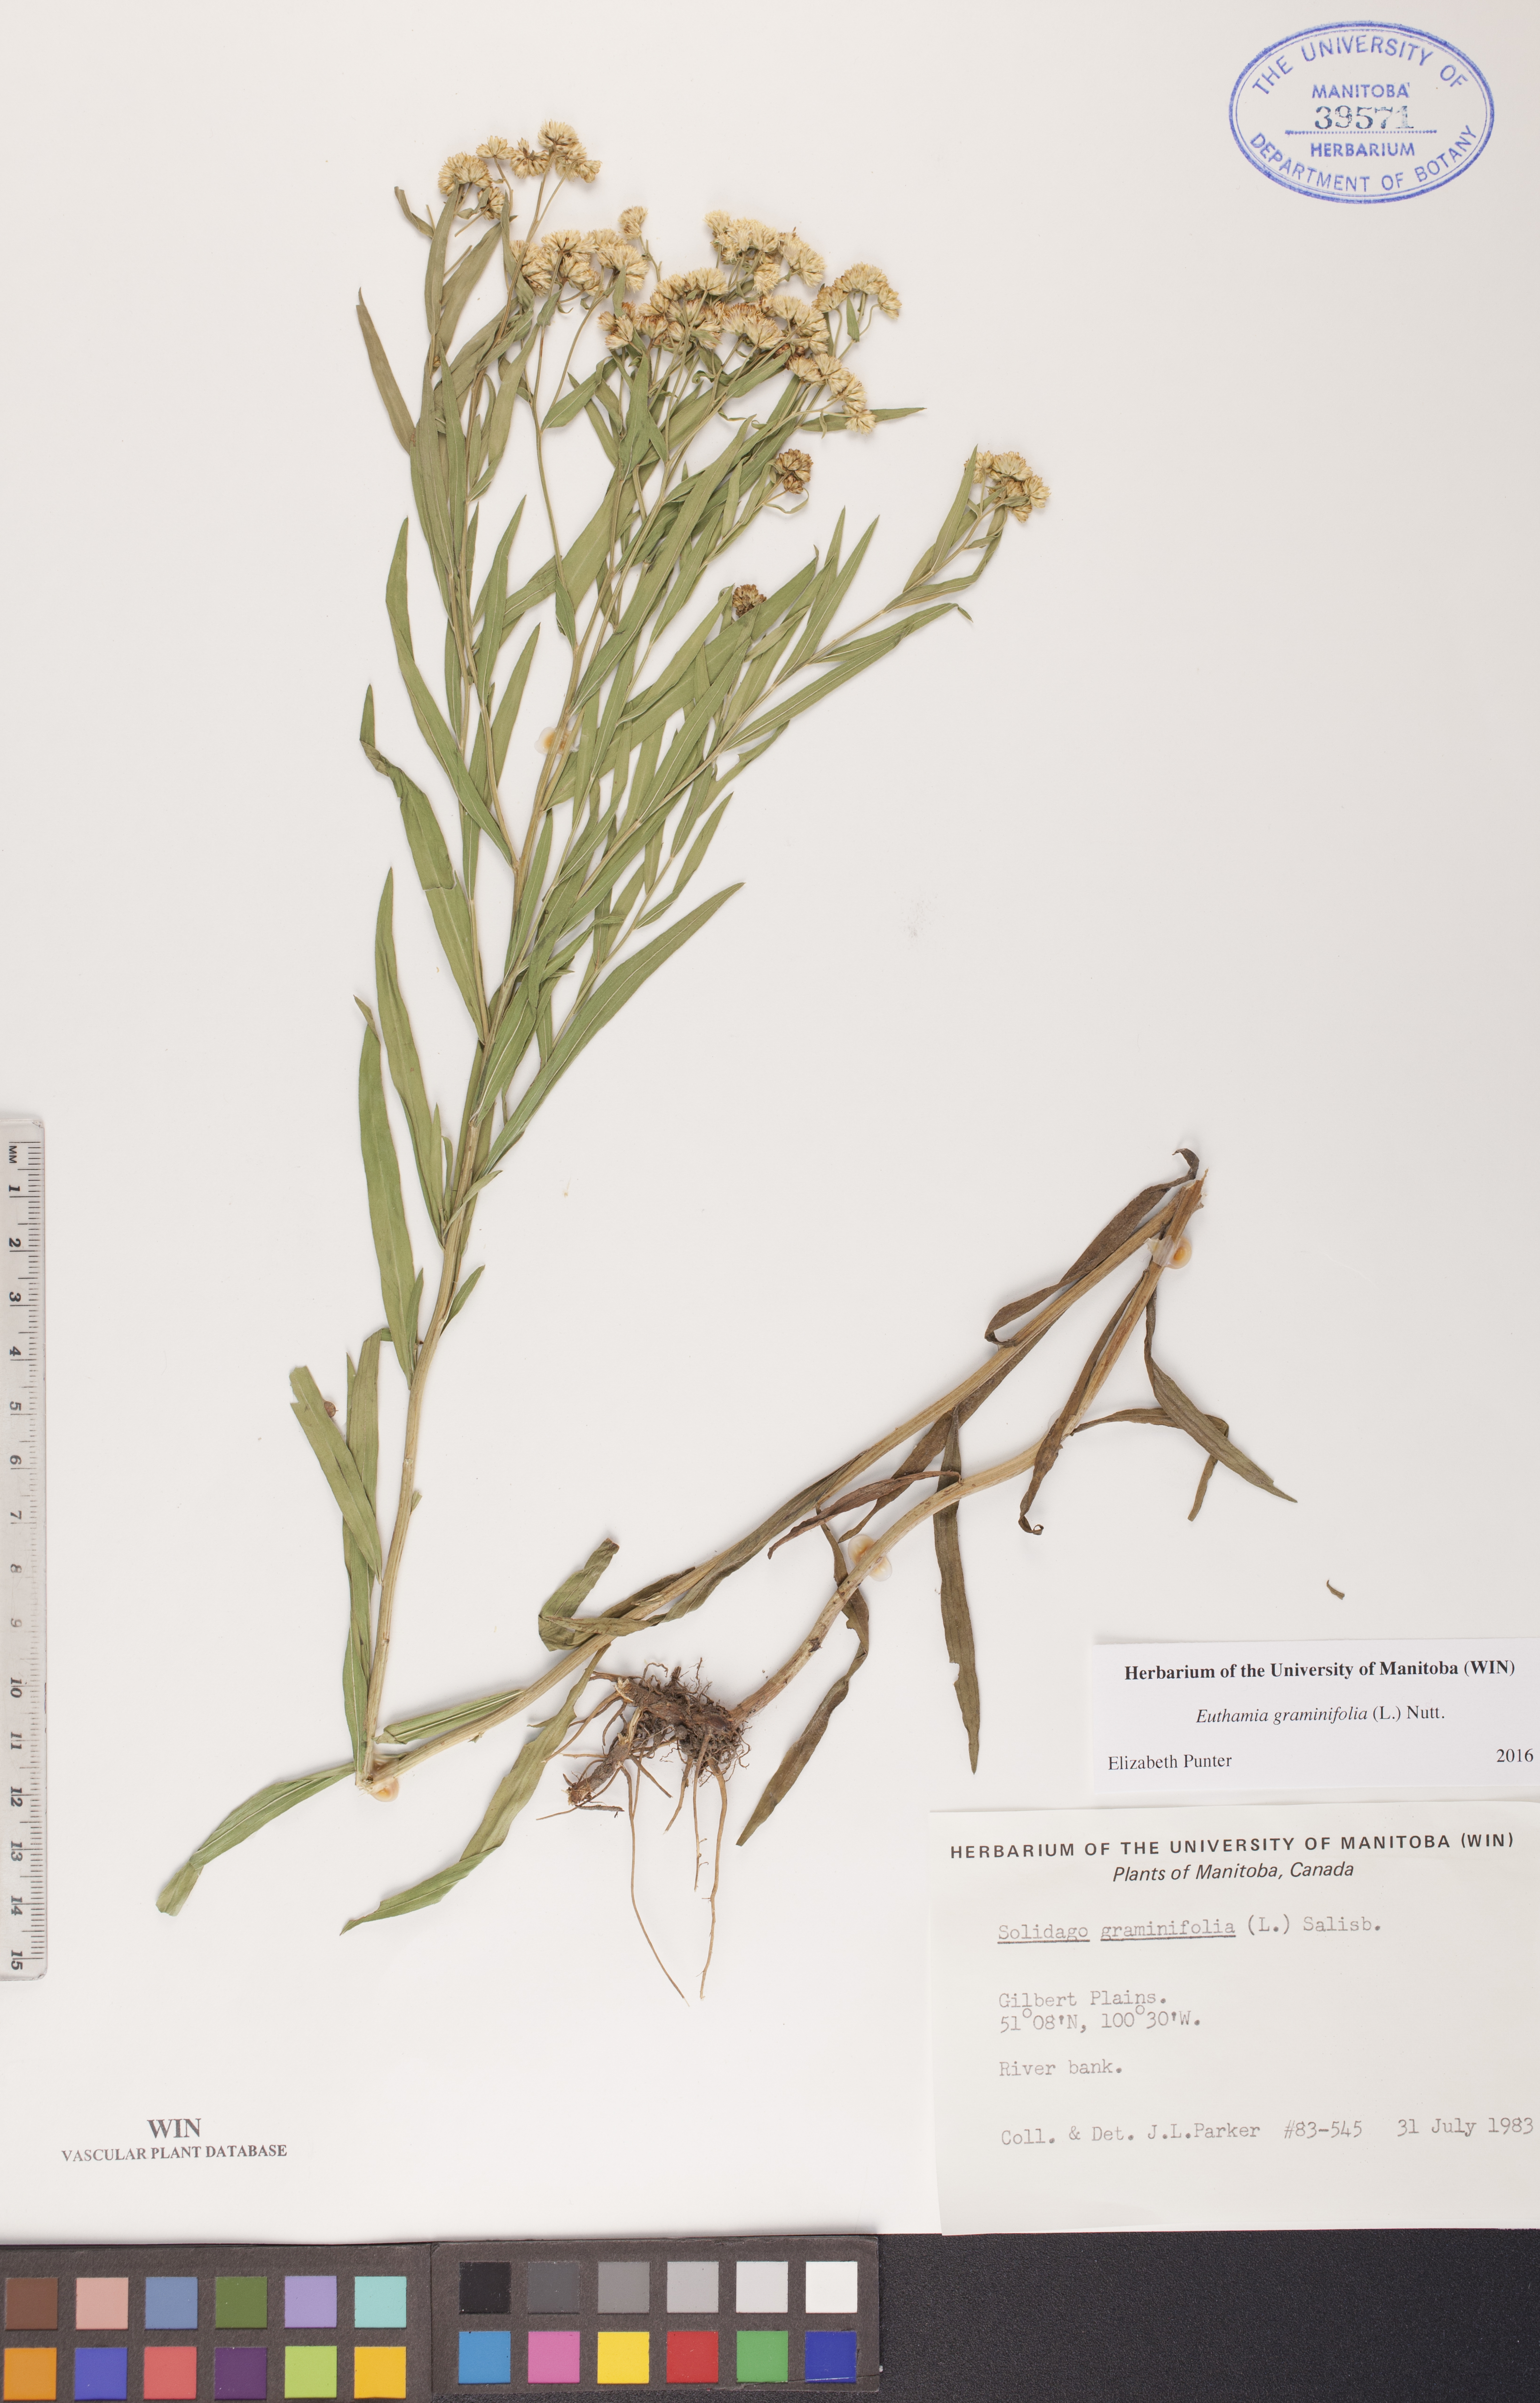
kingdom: Plantae
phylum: Tracheophyta
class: Magnoliopsida
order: Asterales
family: Asteraceae
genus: Euthamia
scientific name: Euthamia graminifolia
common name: Common goldentop
